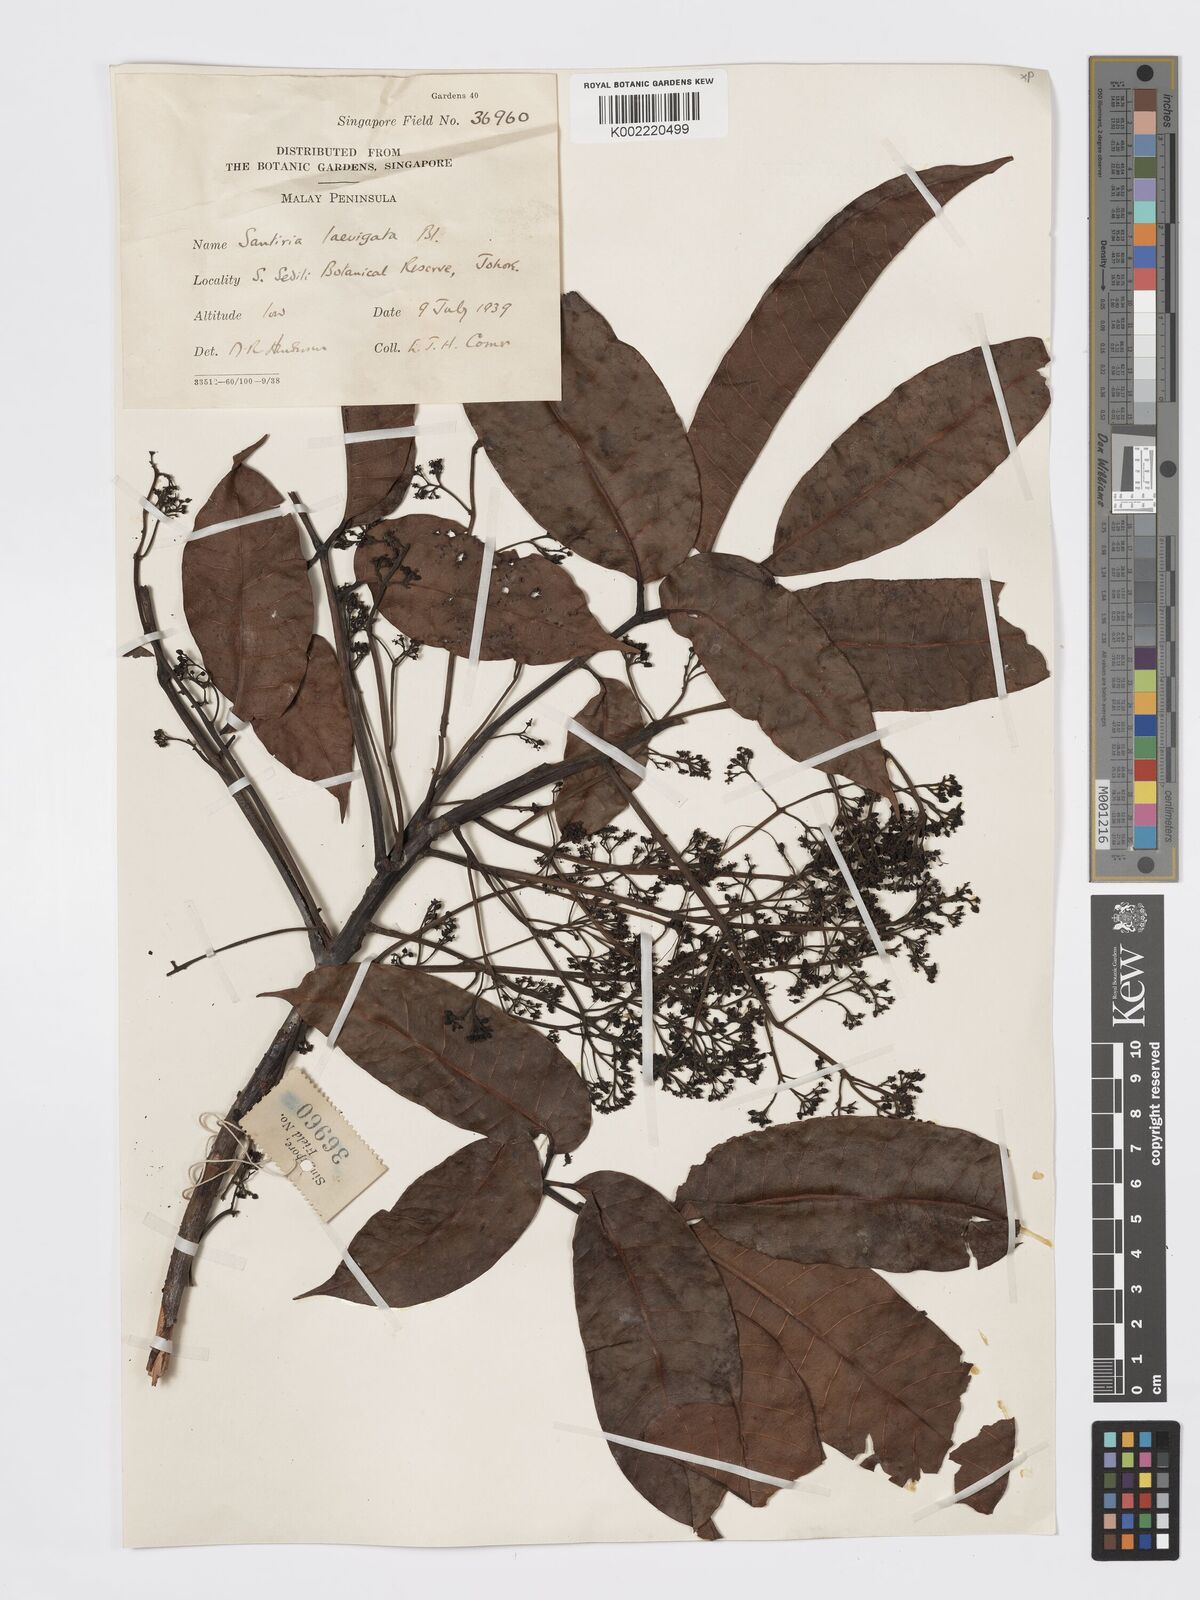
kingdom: Plantae
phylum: Tracheophyta
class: Magnoliopsida
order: Sapindales
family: Burseraceae
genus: Santiria
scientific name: Santiria laevigata
